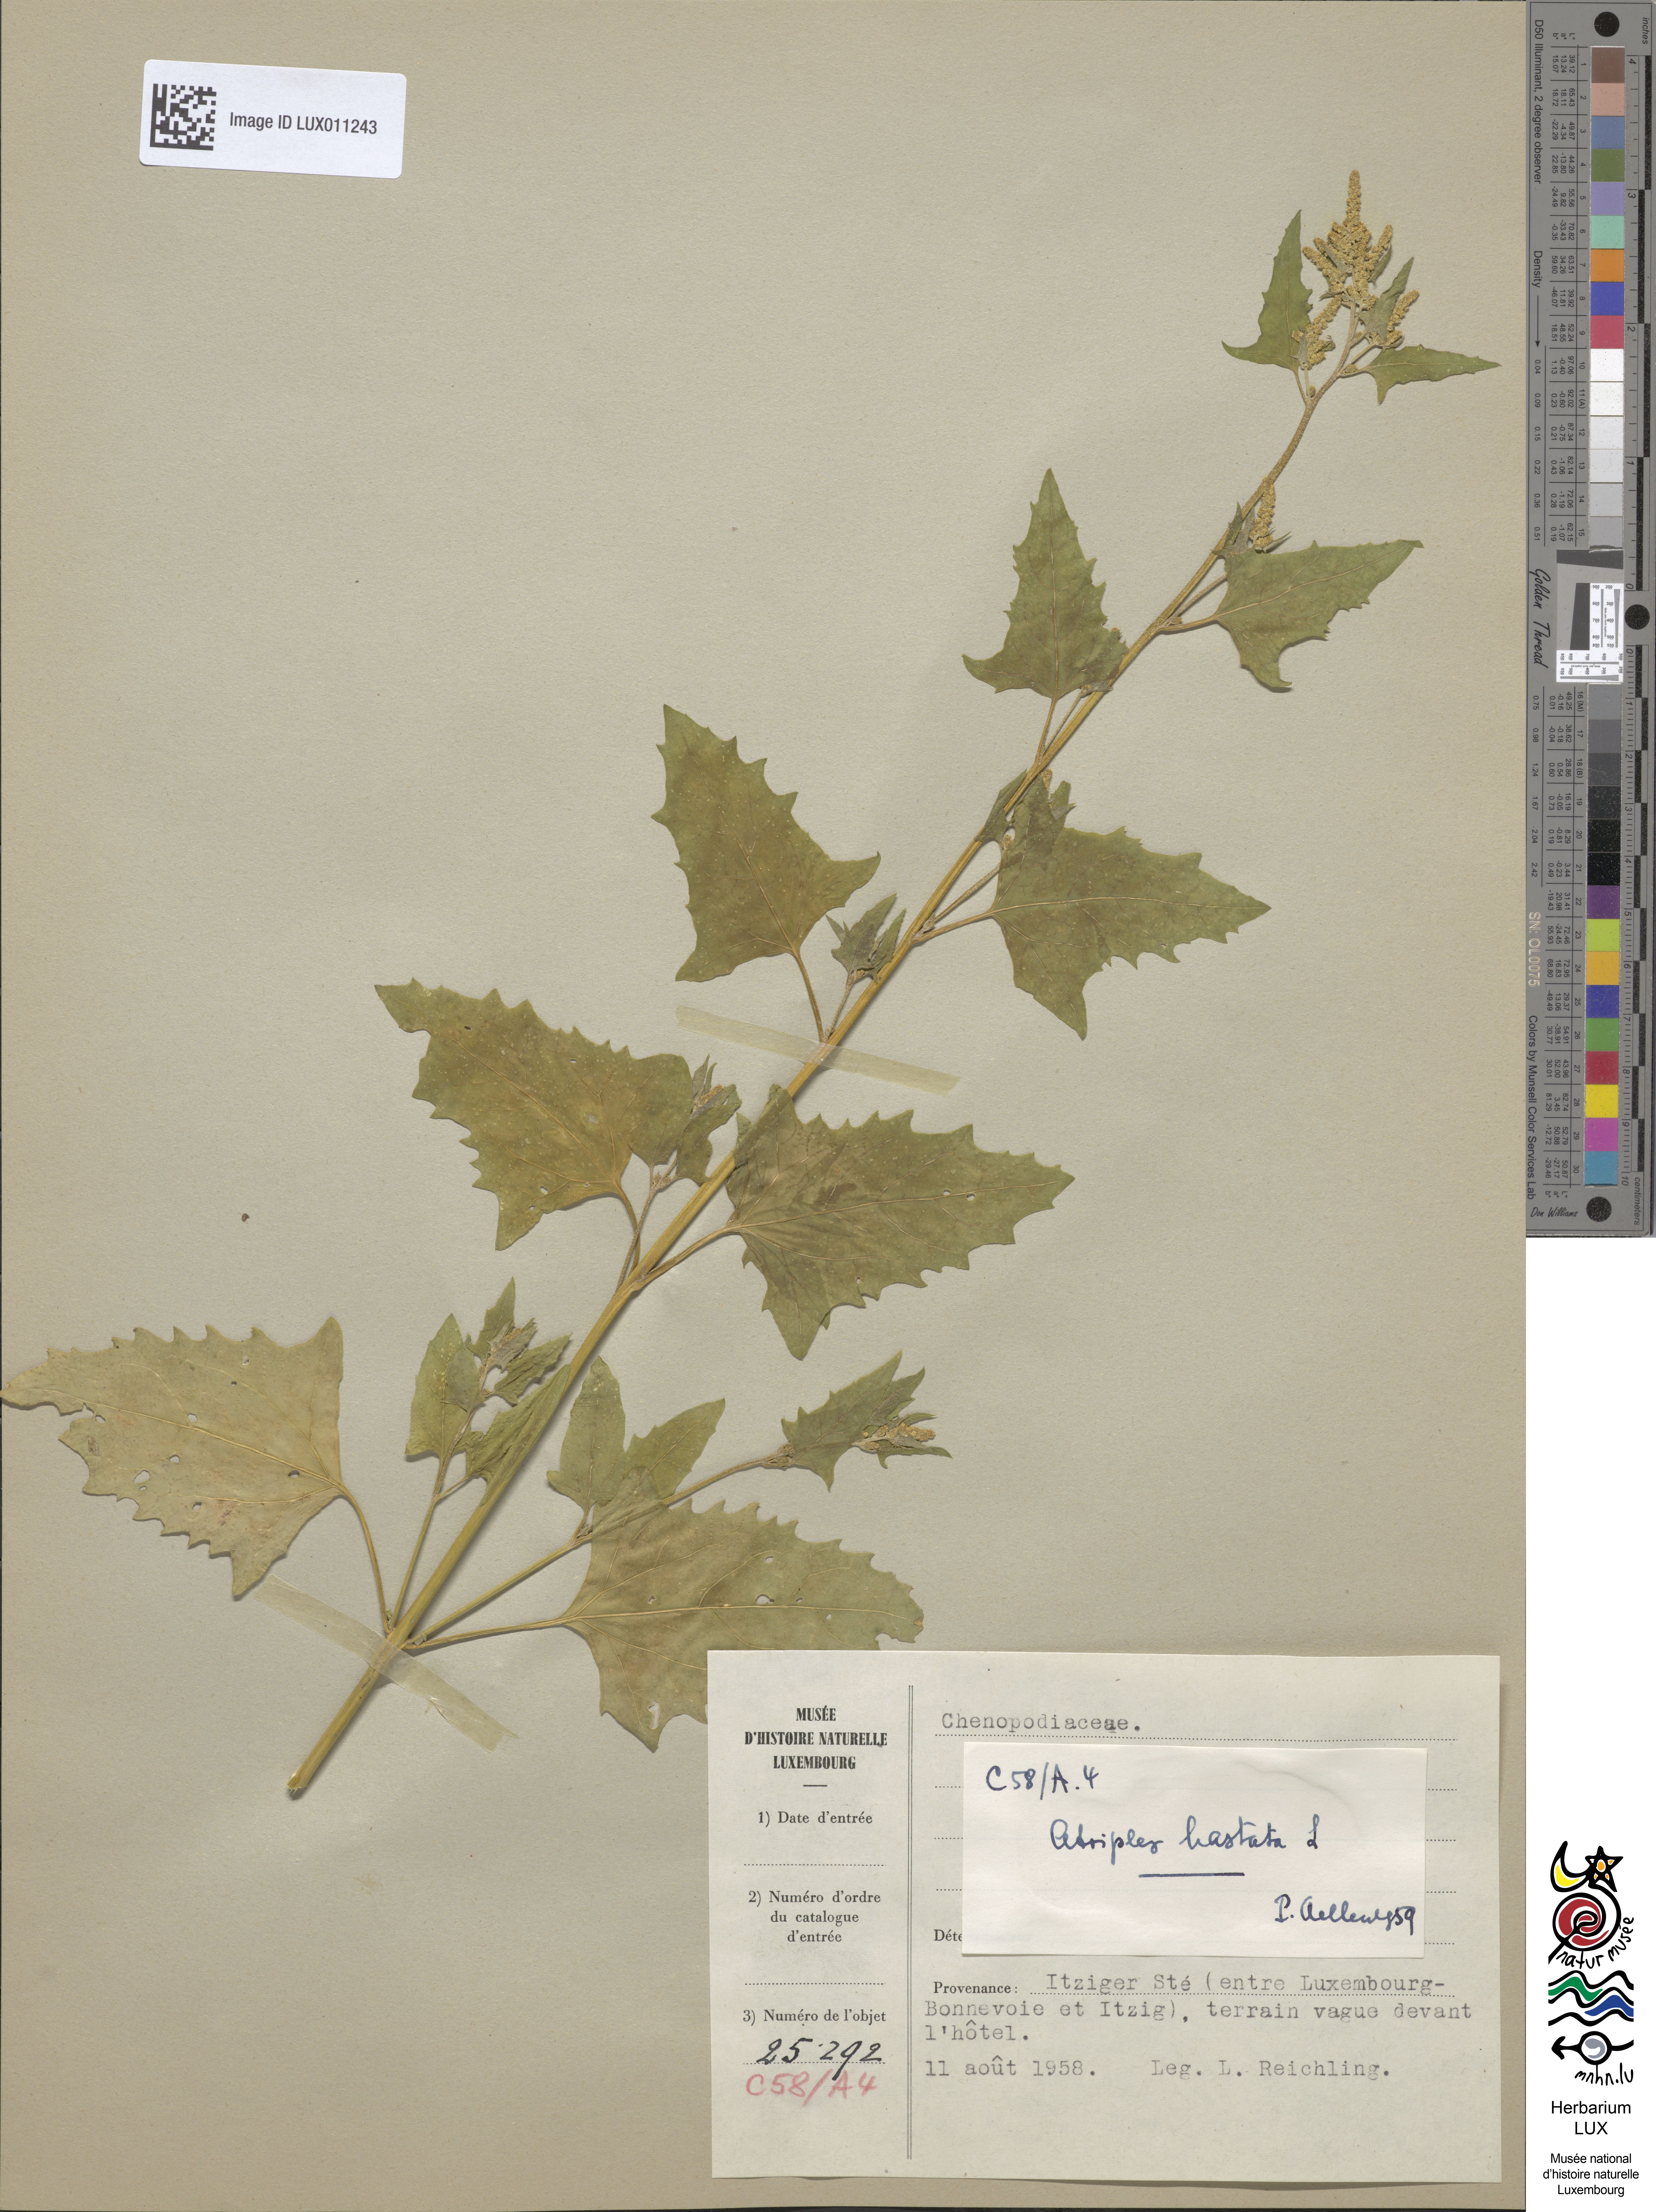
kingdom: Plantae
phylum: Tracheophyta
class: Magnoliopsida
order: Caryophyllales
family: Amaranthaceae
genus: Atriplex
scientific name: Atriplex calotheca
